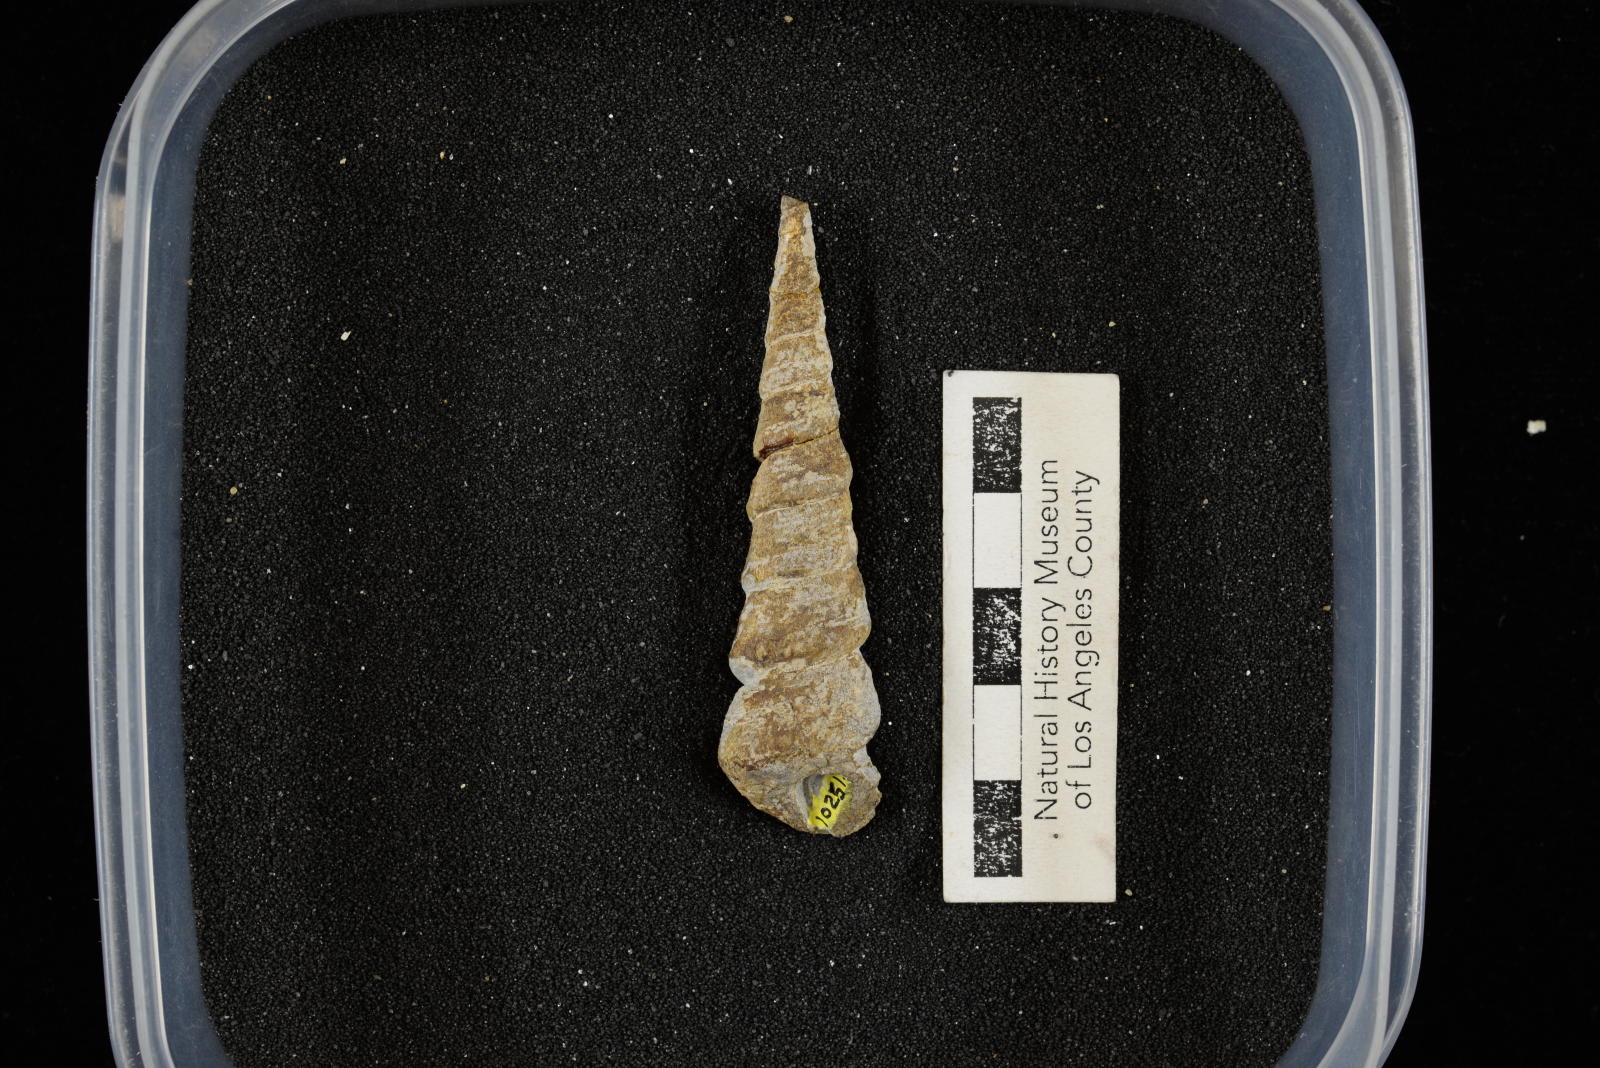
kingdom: Animalia
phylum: Mollusca
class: Gastropoda
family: Turritellidae
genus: Turritella
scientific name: Turritella chaneyi
